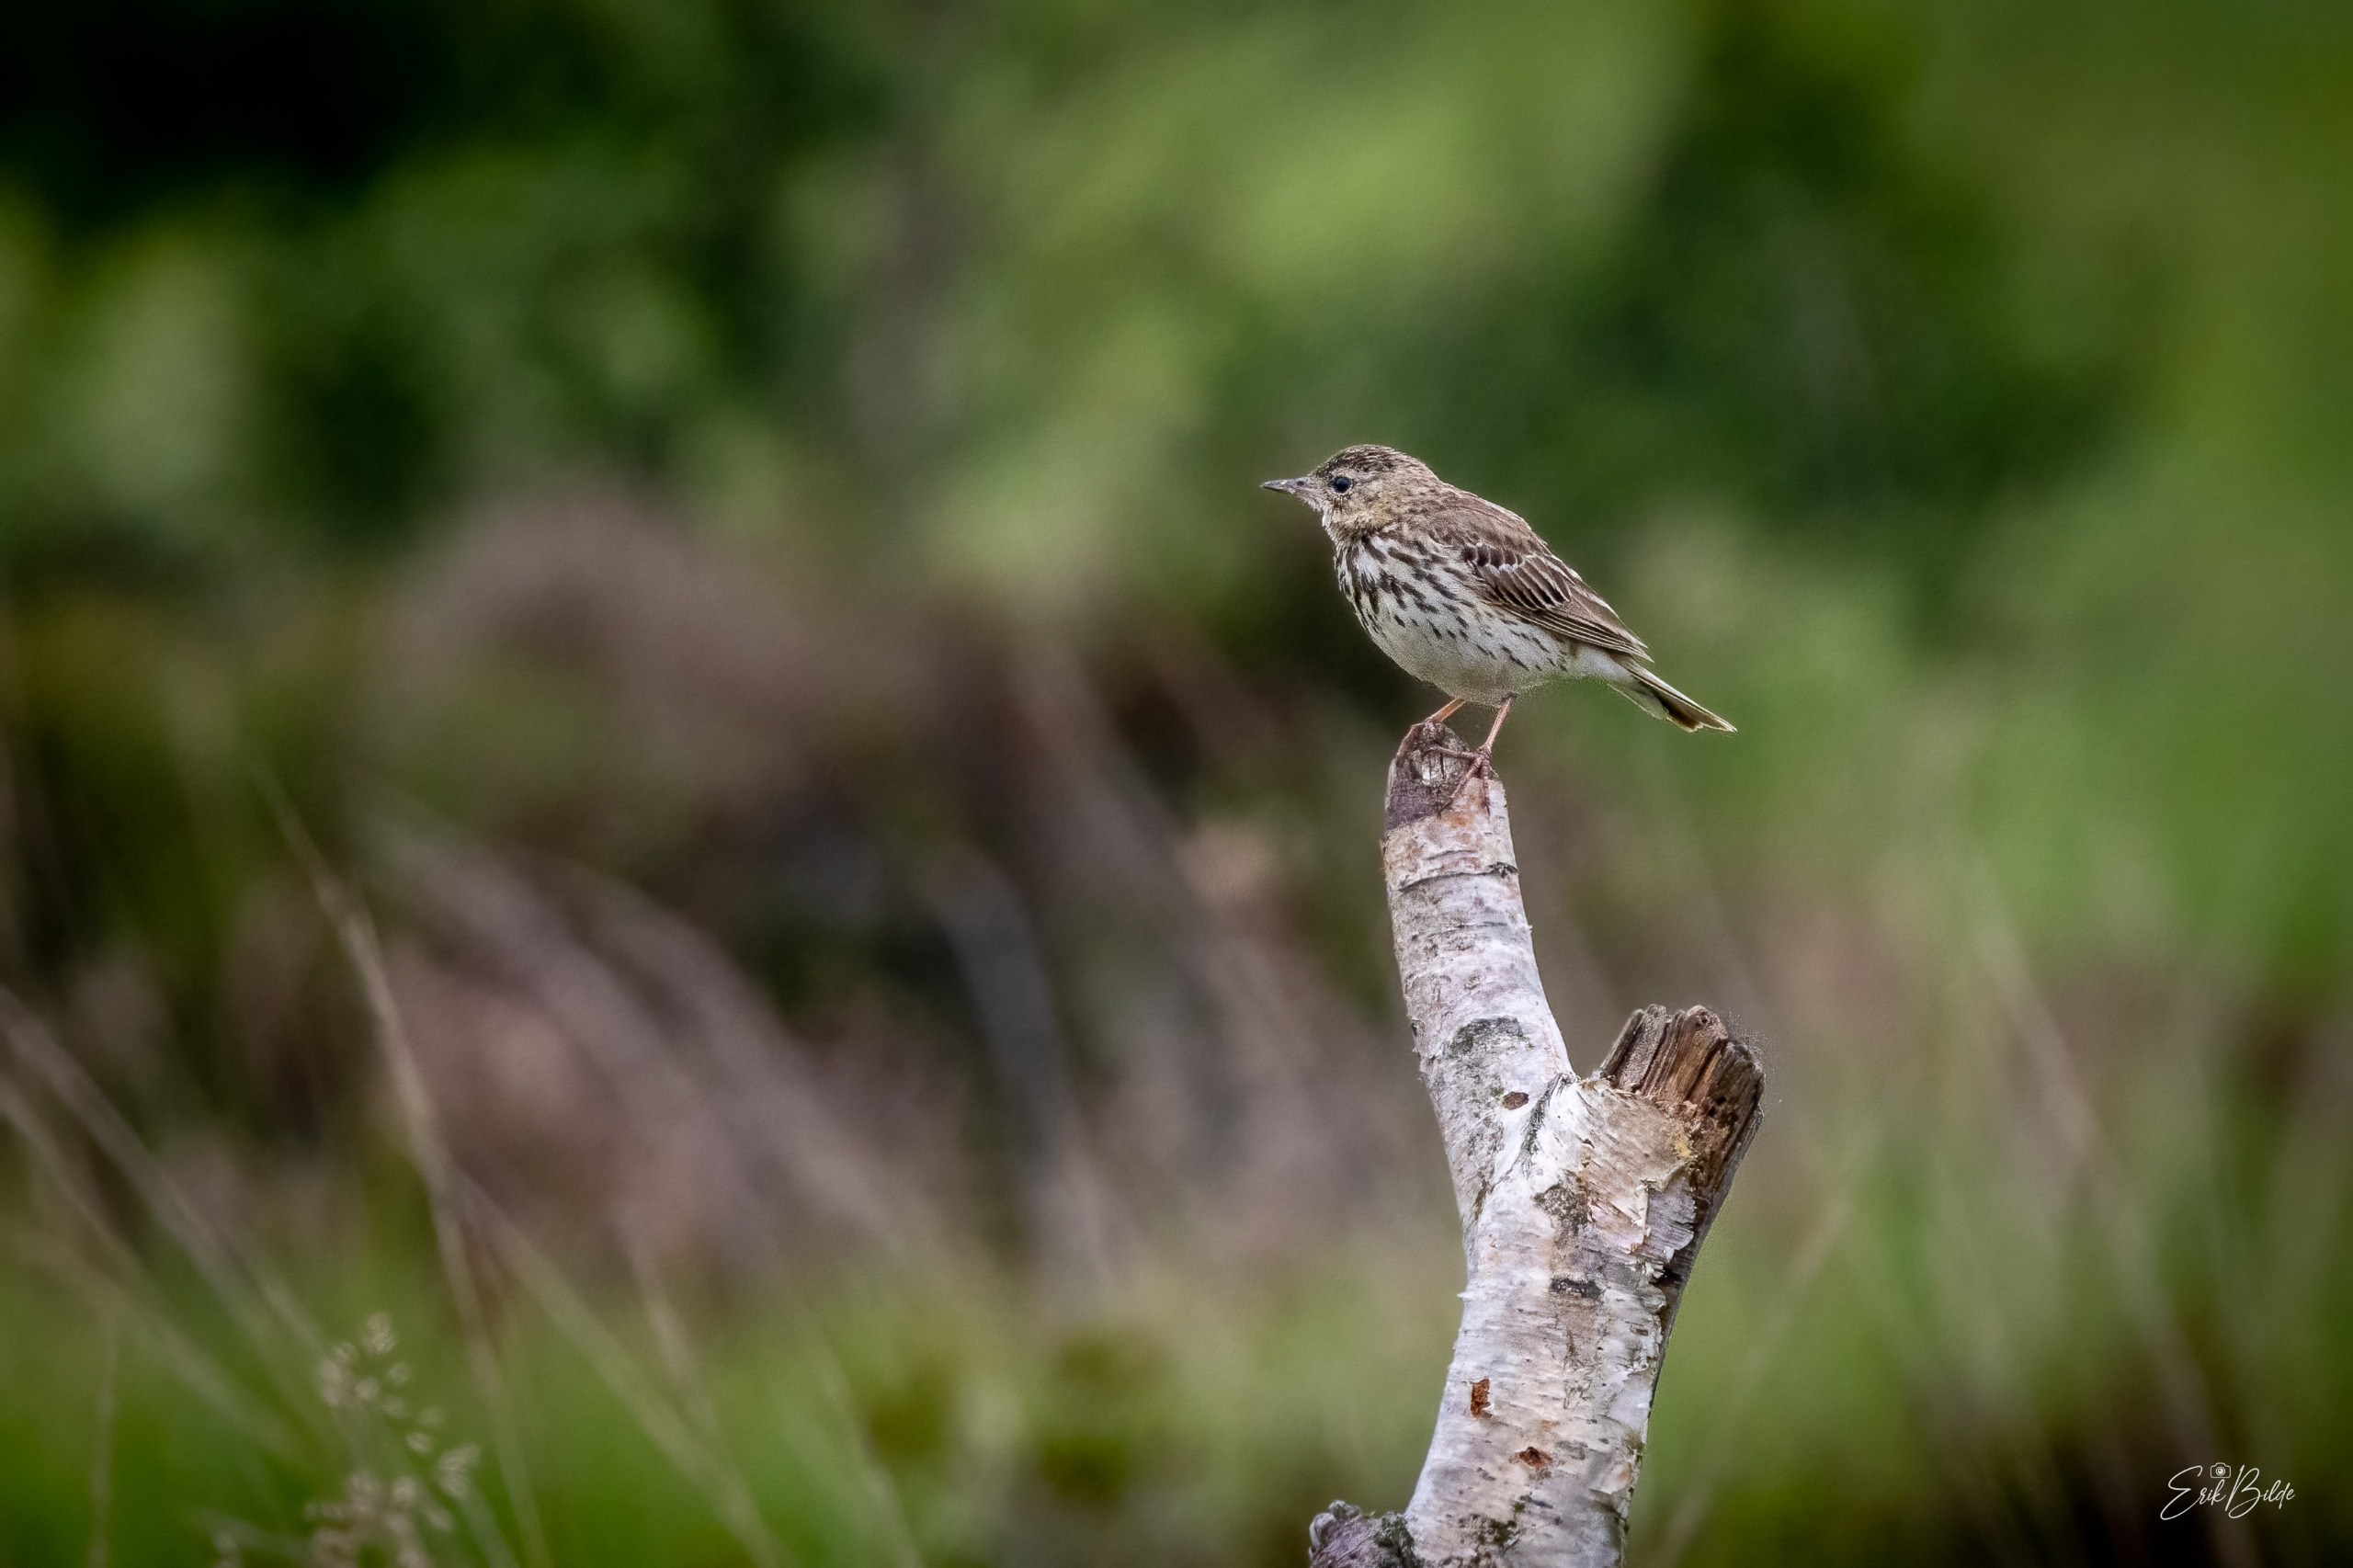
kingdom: Animalia
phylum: Chordata
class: Aves
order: Passeriformes
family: Motacillidae
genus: Anthus
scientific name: Anthus trivialis
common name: Skovpiber
